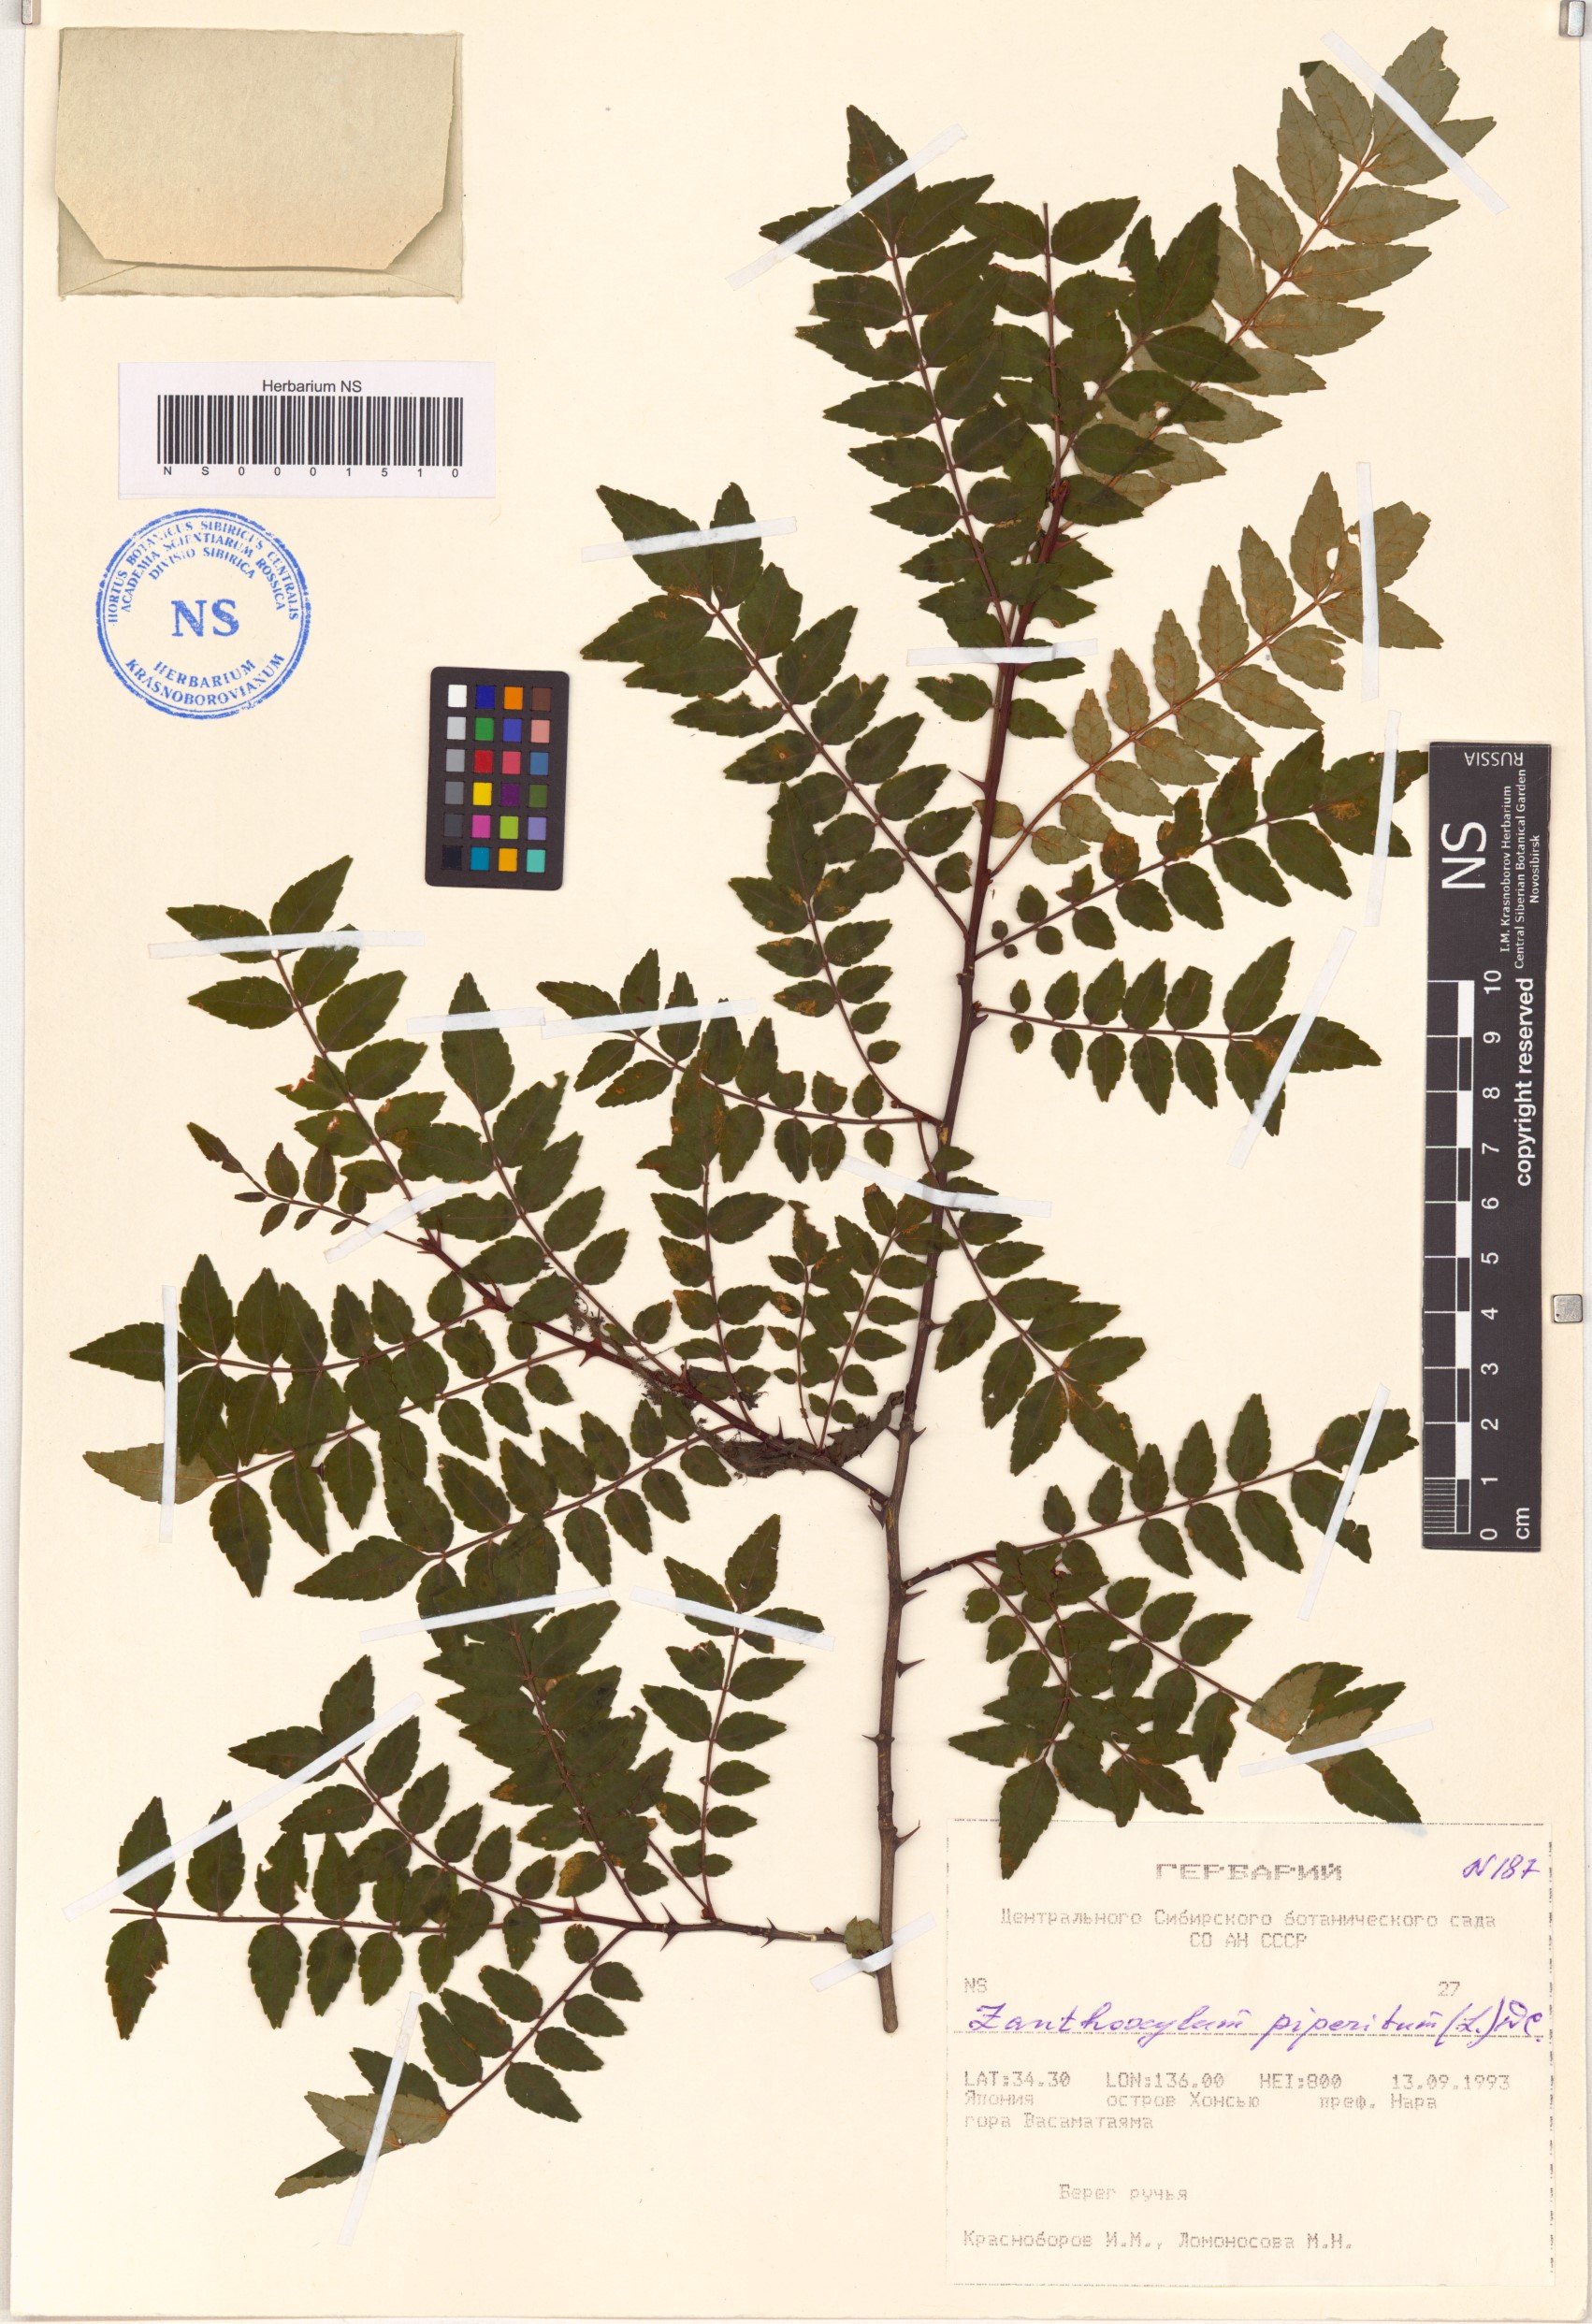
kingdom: Plantae
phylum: Tracheophyta
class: Magnoliopsida
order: Sapindales
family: Rutaceae
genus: Zanthoxylum
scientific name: Zanthoxylum piperitum
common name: Japanese-pepper
